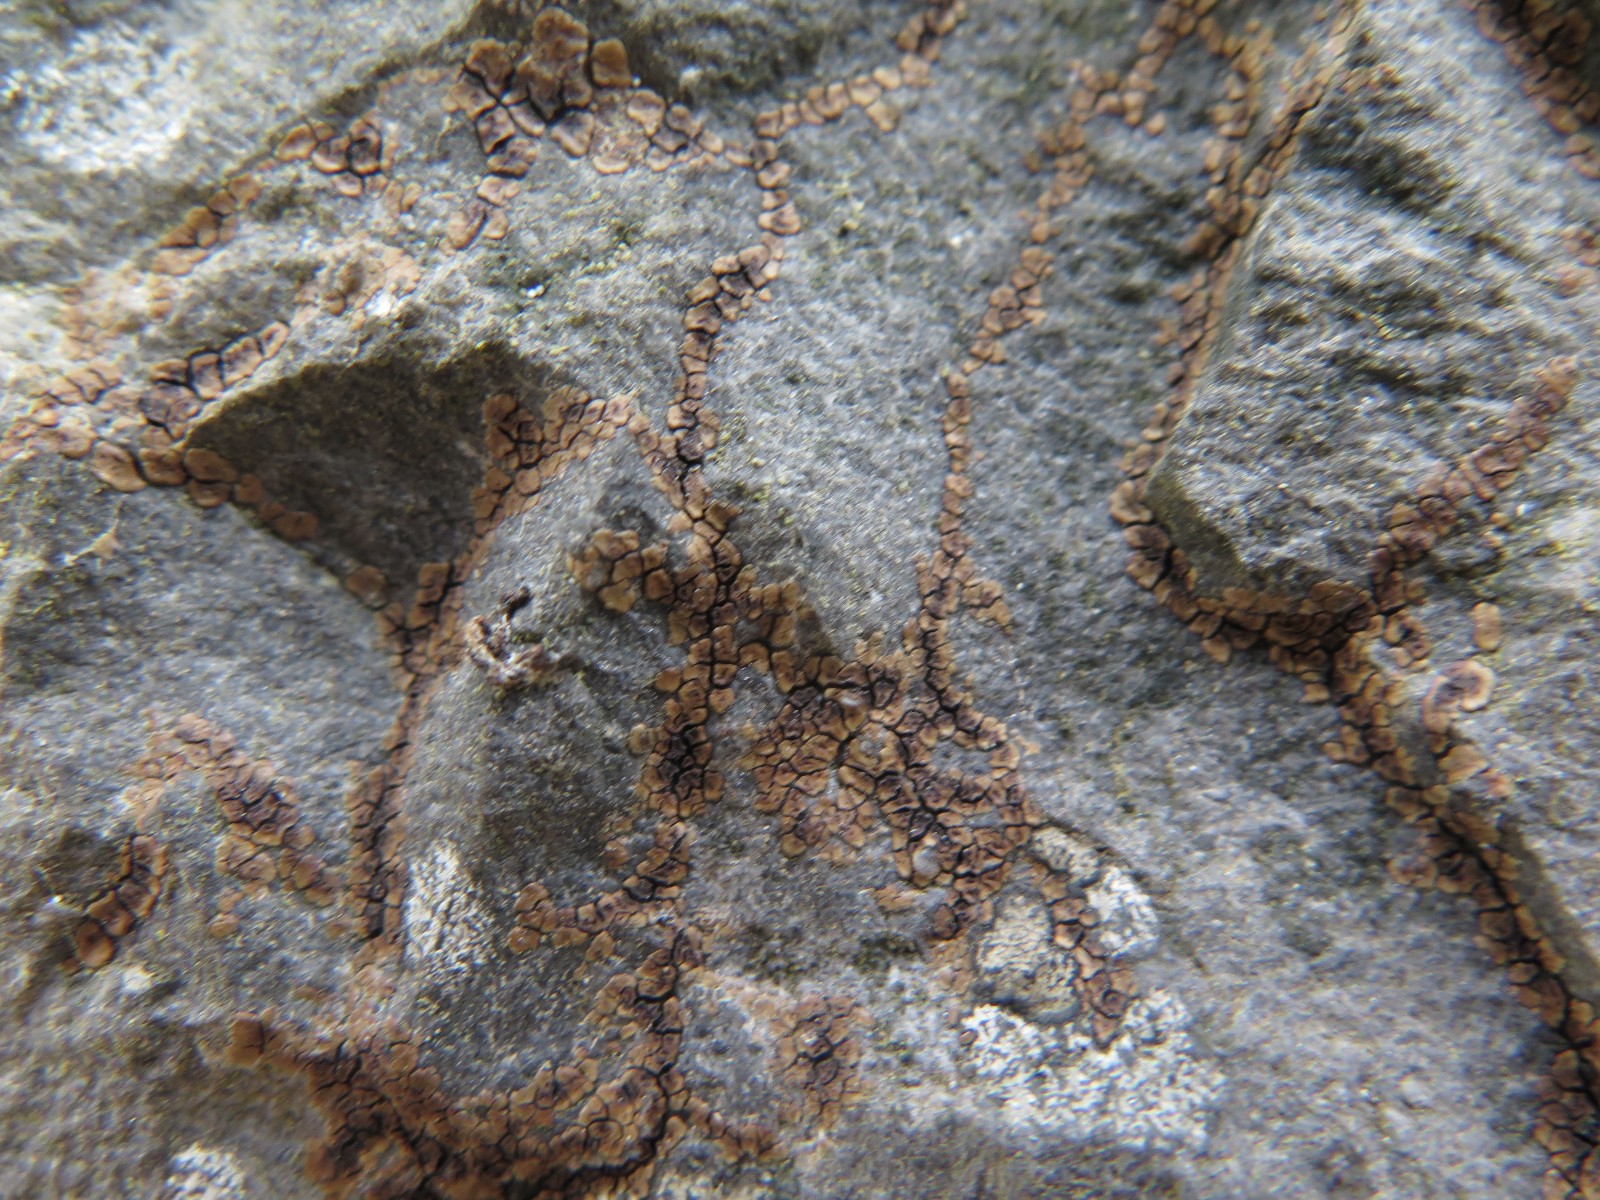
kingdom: Fungi
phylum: Ascomycota
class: Lecanoromycetes
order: Acarosporales
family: Acarosporaceae
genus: Acarospora
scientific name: Acarospora fuscata
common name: brun småsporelav
